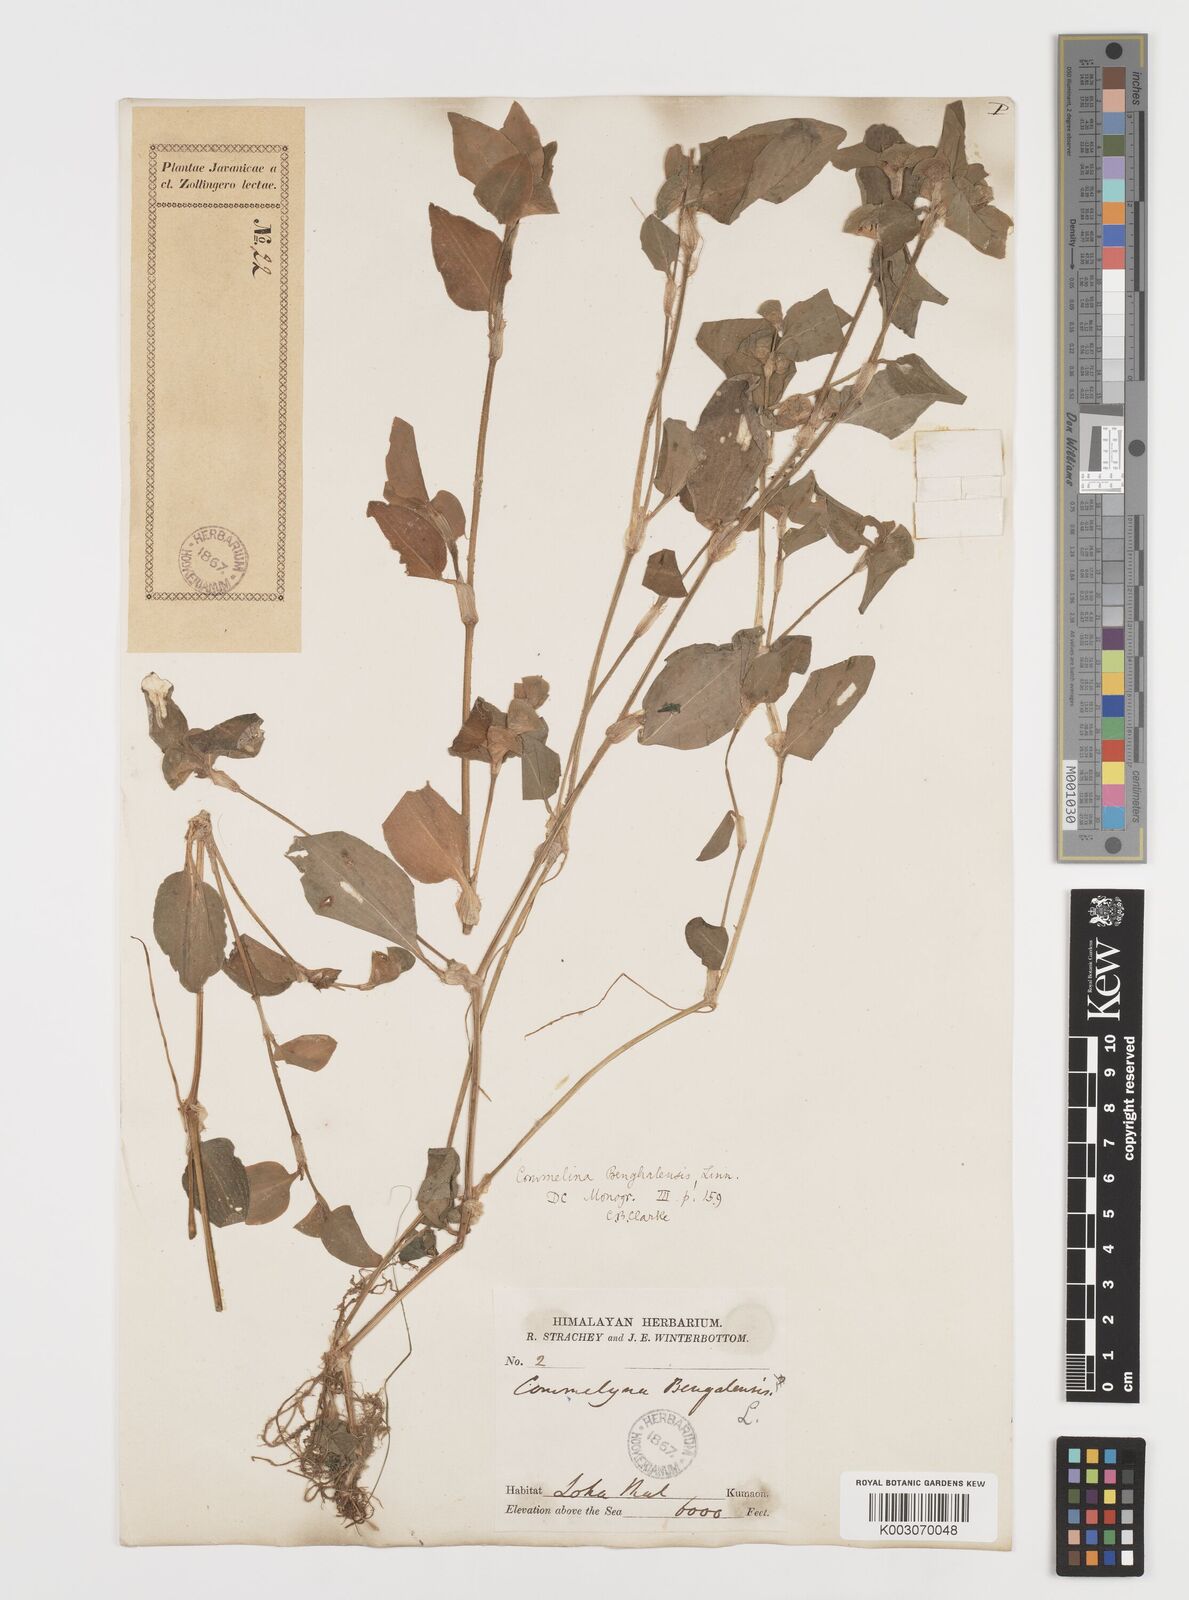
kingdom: Plantae
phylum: Tracheophyta
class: Liliopsida
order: Commelinales
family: Commelinaceae
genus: Commelina
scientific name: Commelina benghalensis
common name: Jio
